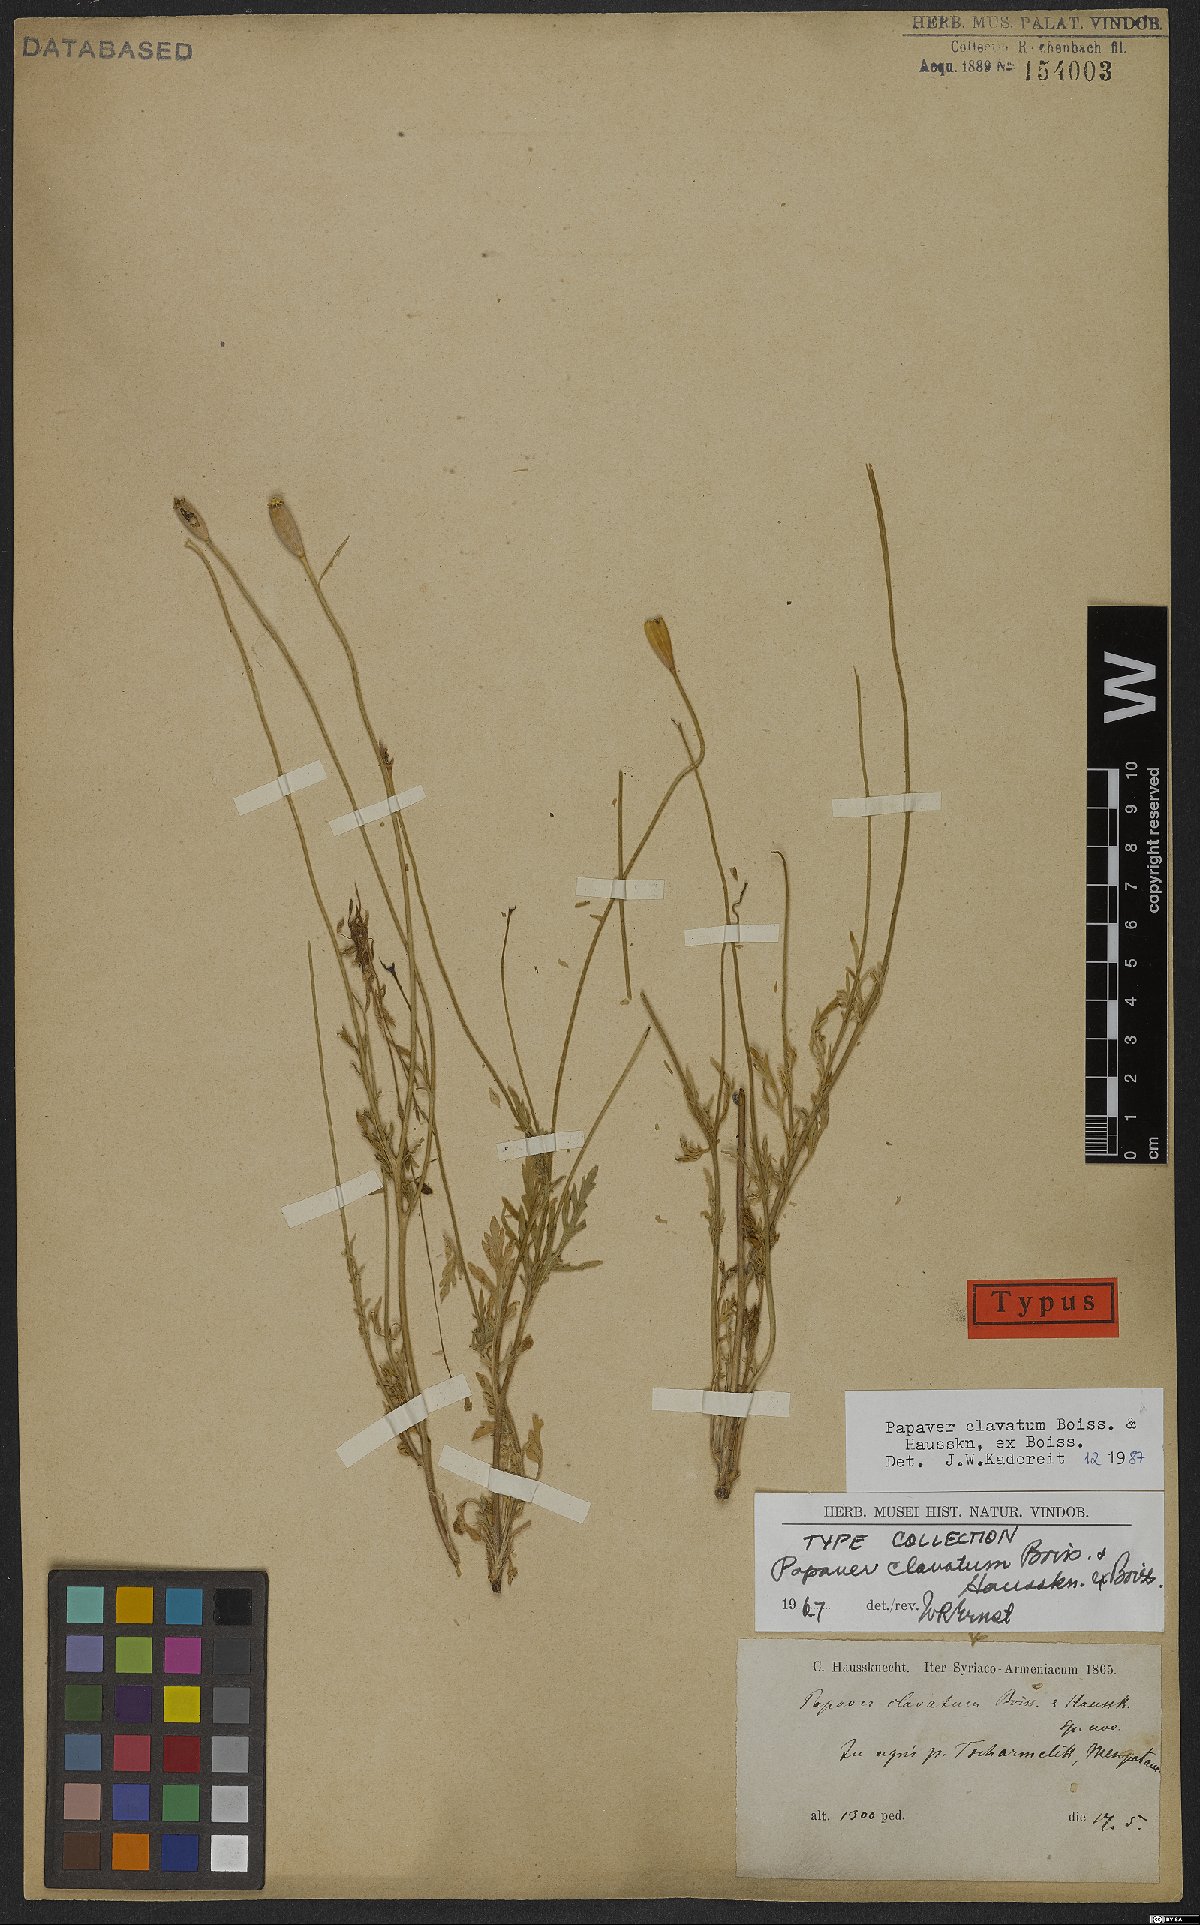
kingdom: Plantae
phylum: Tracheophyta
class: Magnoliopsida
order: Ranunculales
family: Papaveraceae
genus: Papaver
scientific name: Papaver clavatum
